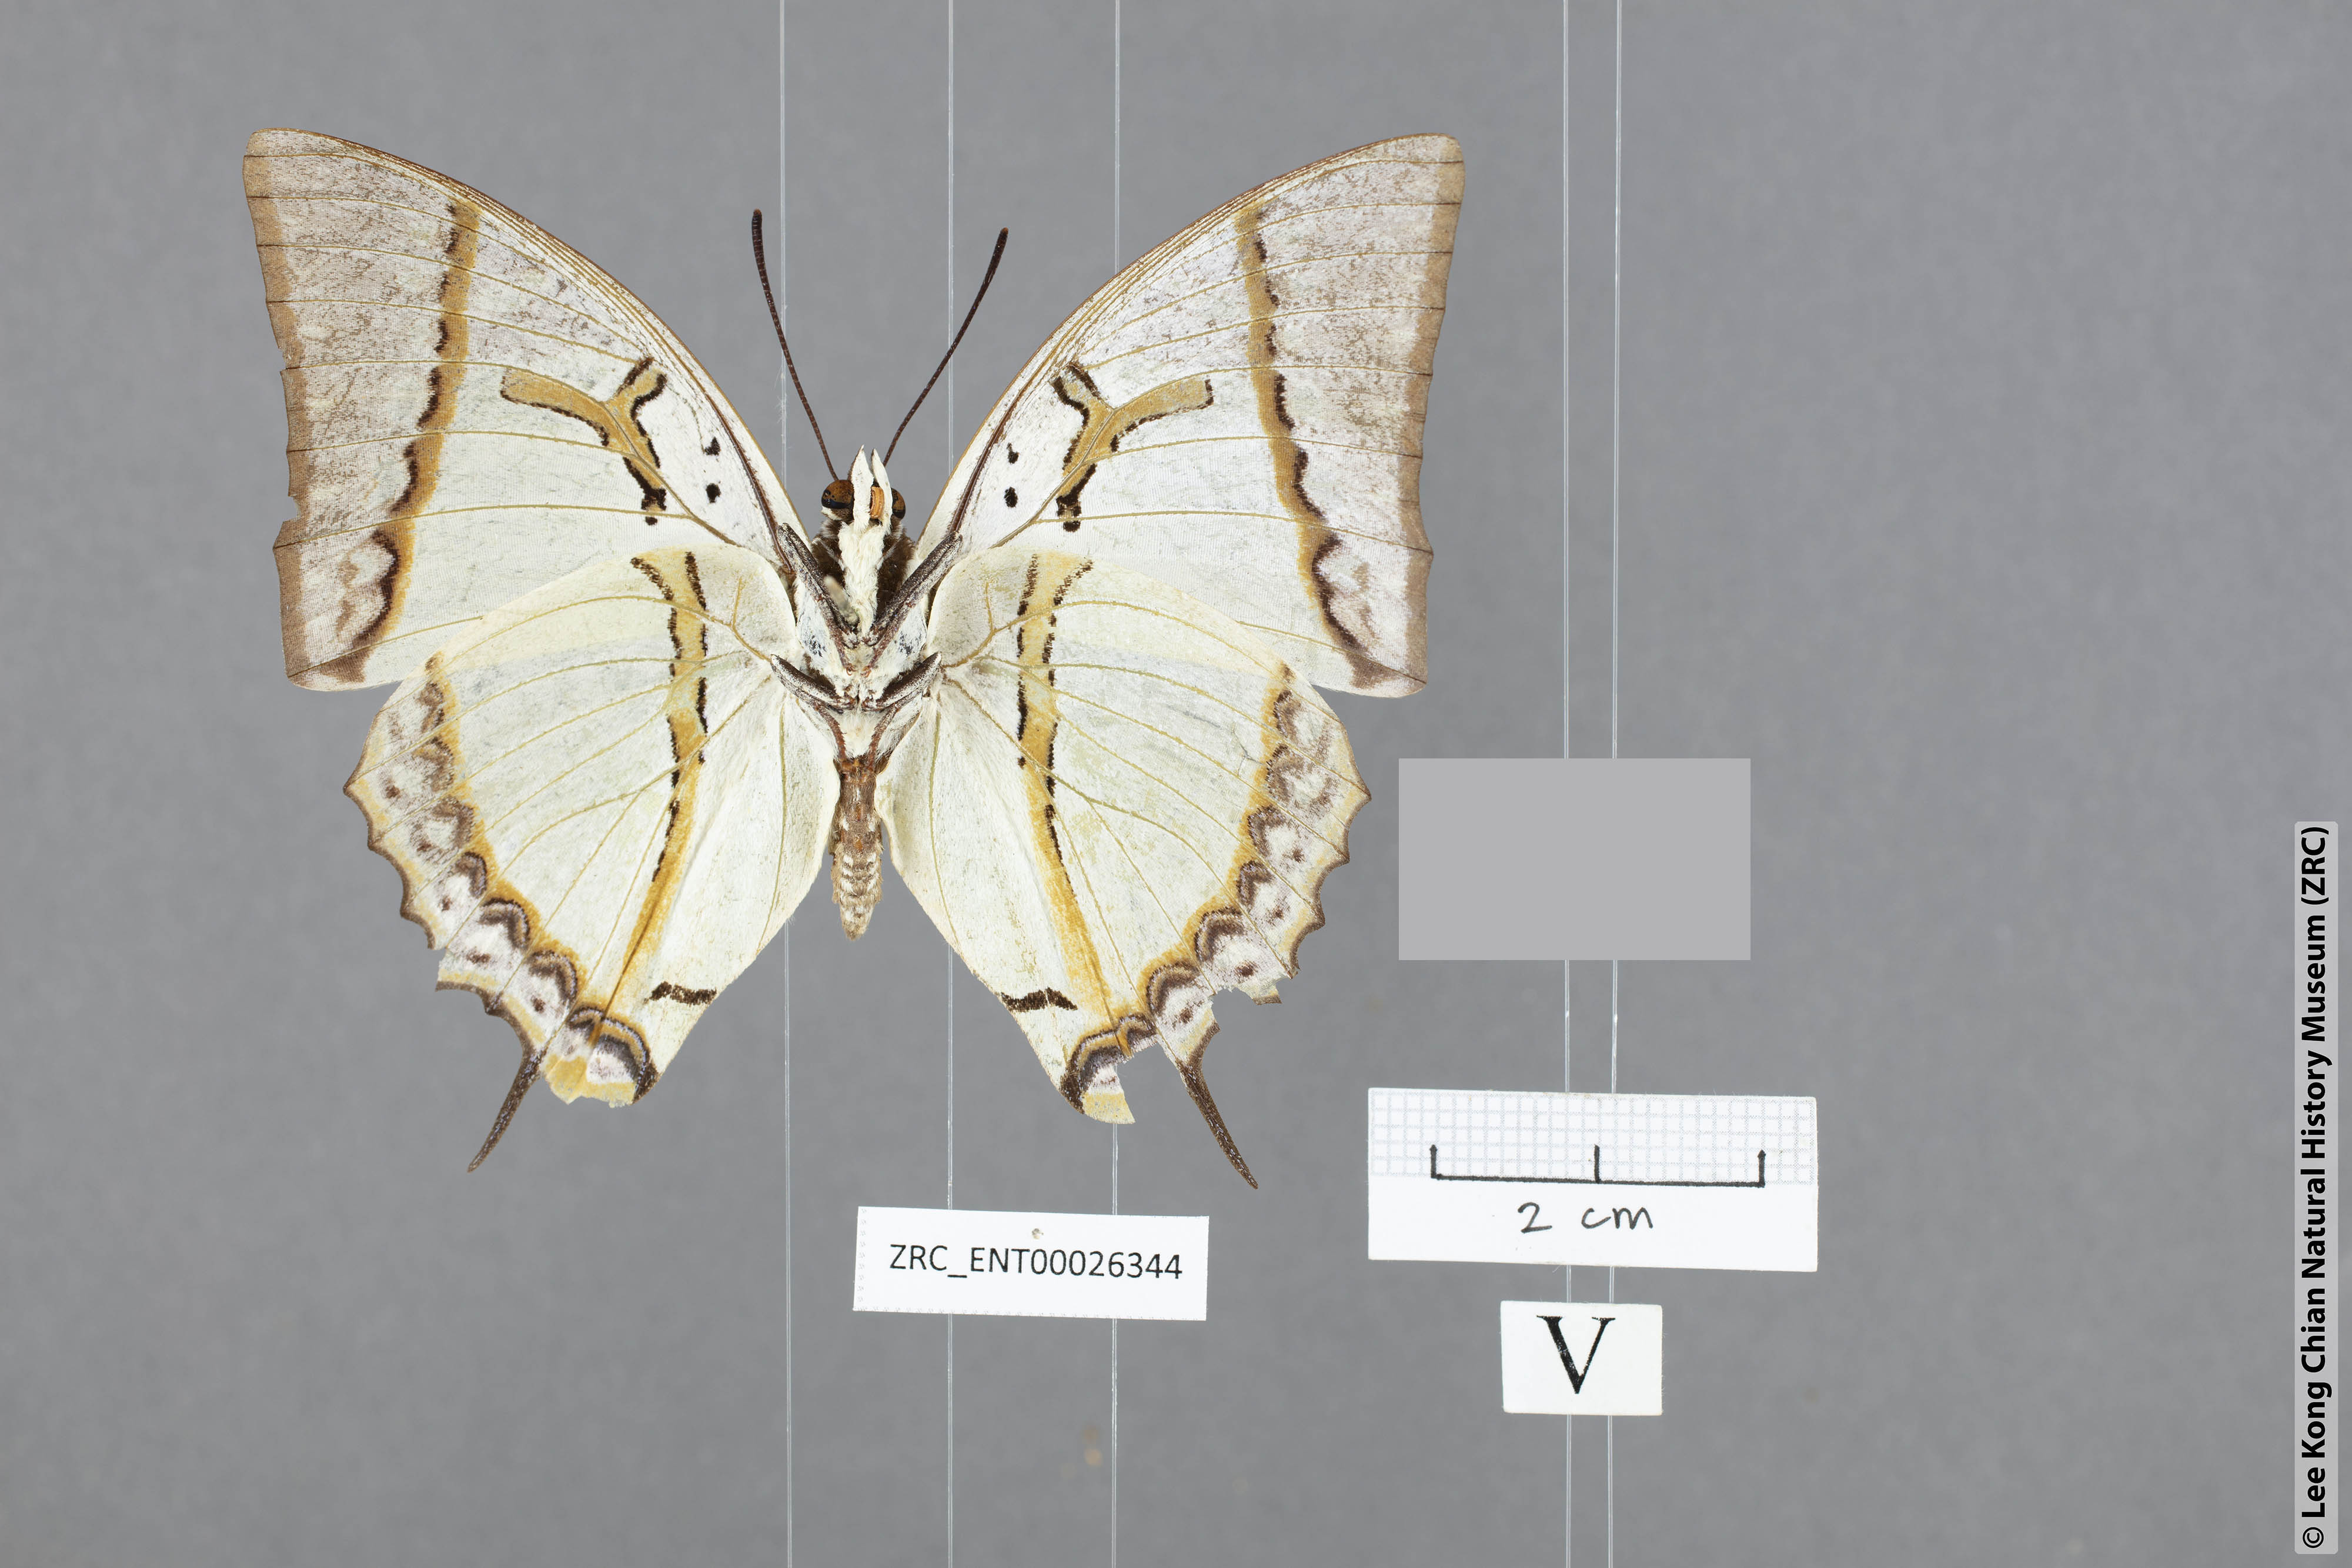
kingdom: Animalia
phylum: Arthropoda
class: Insecta
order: Lepidoptera
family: Nymphalidae
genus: Polyura
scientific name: Polyura eudamippus
